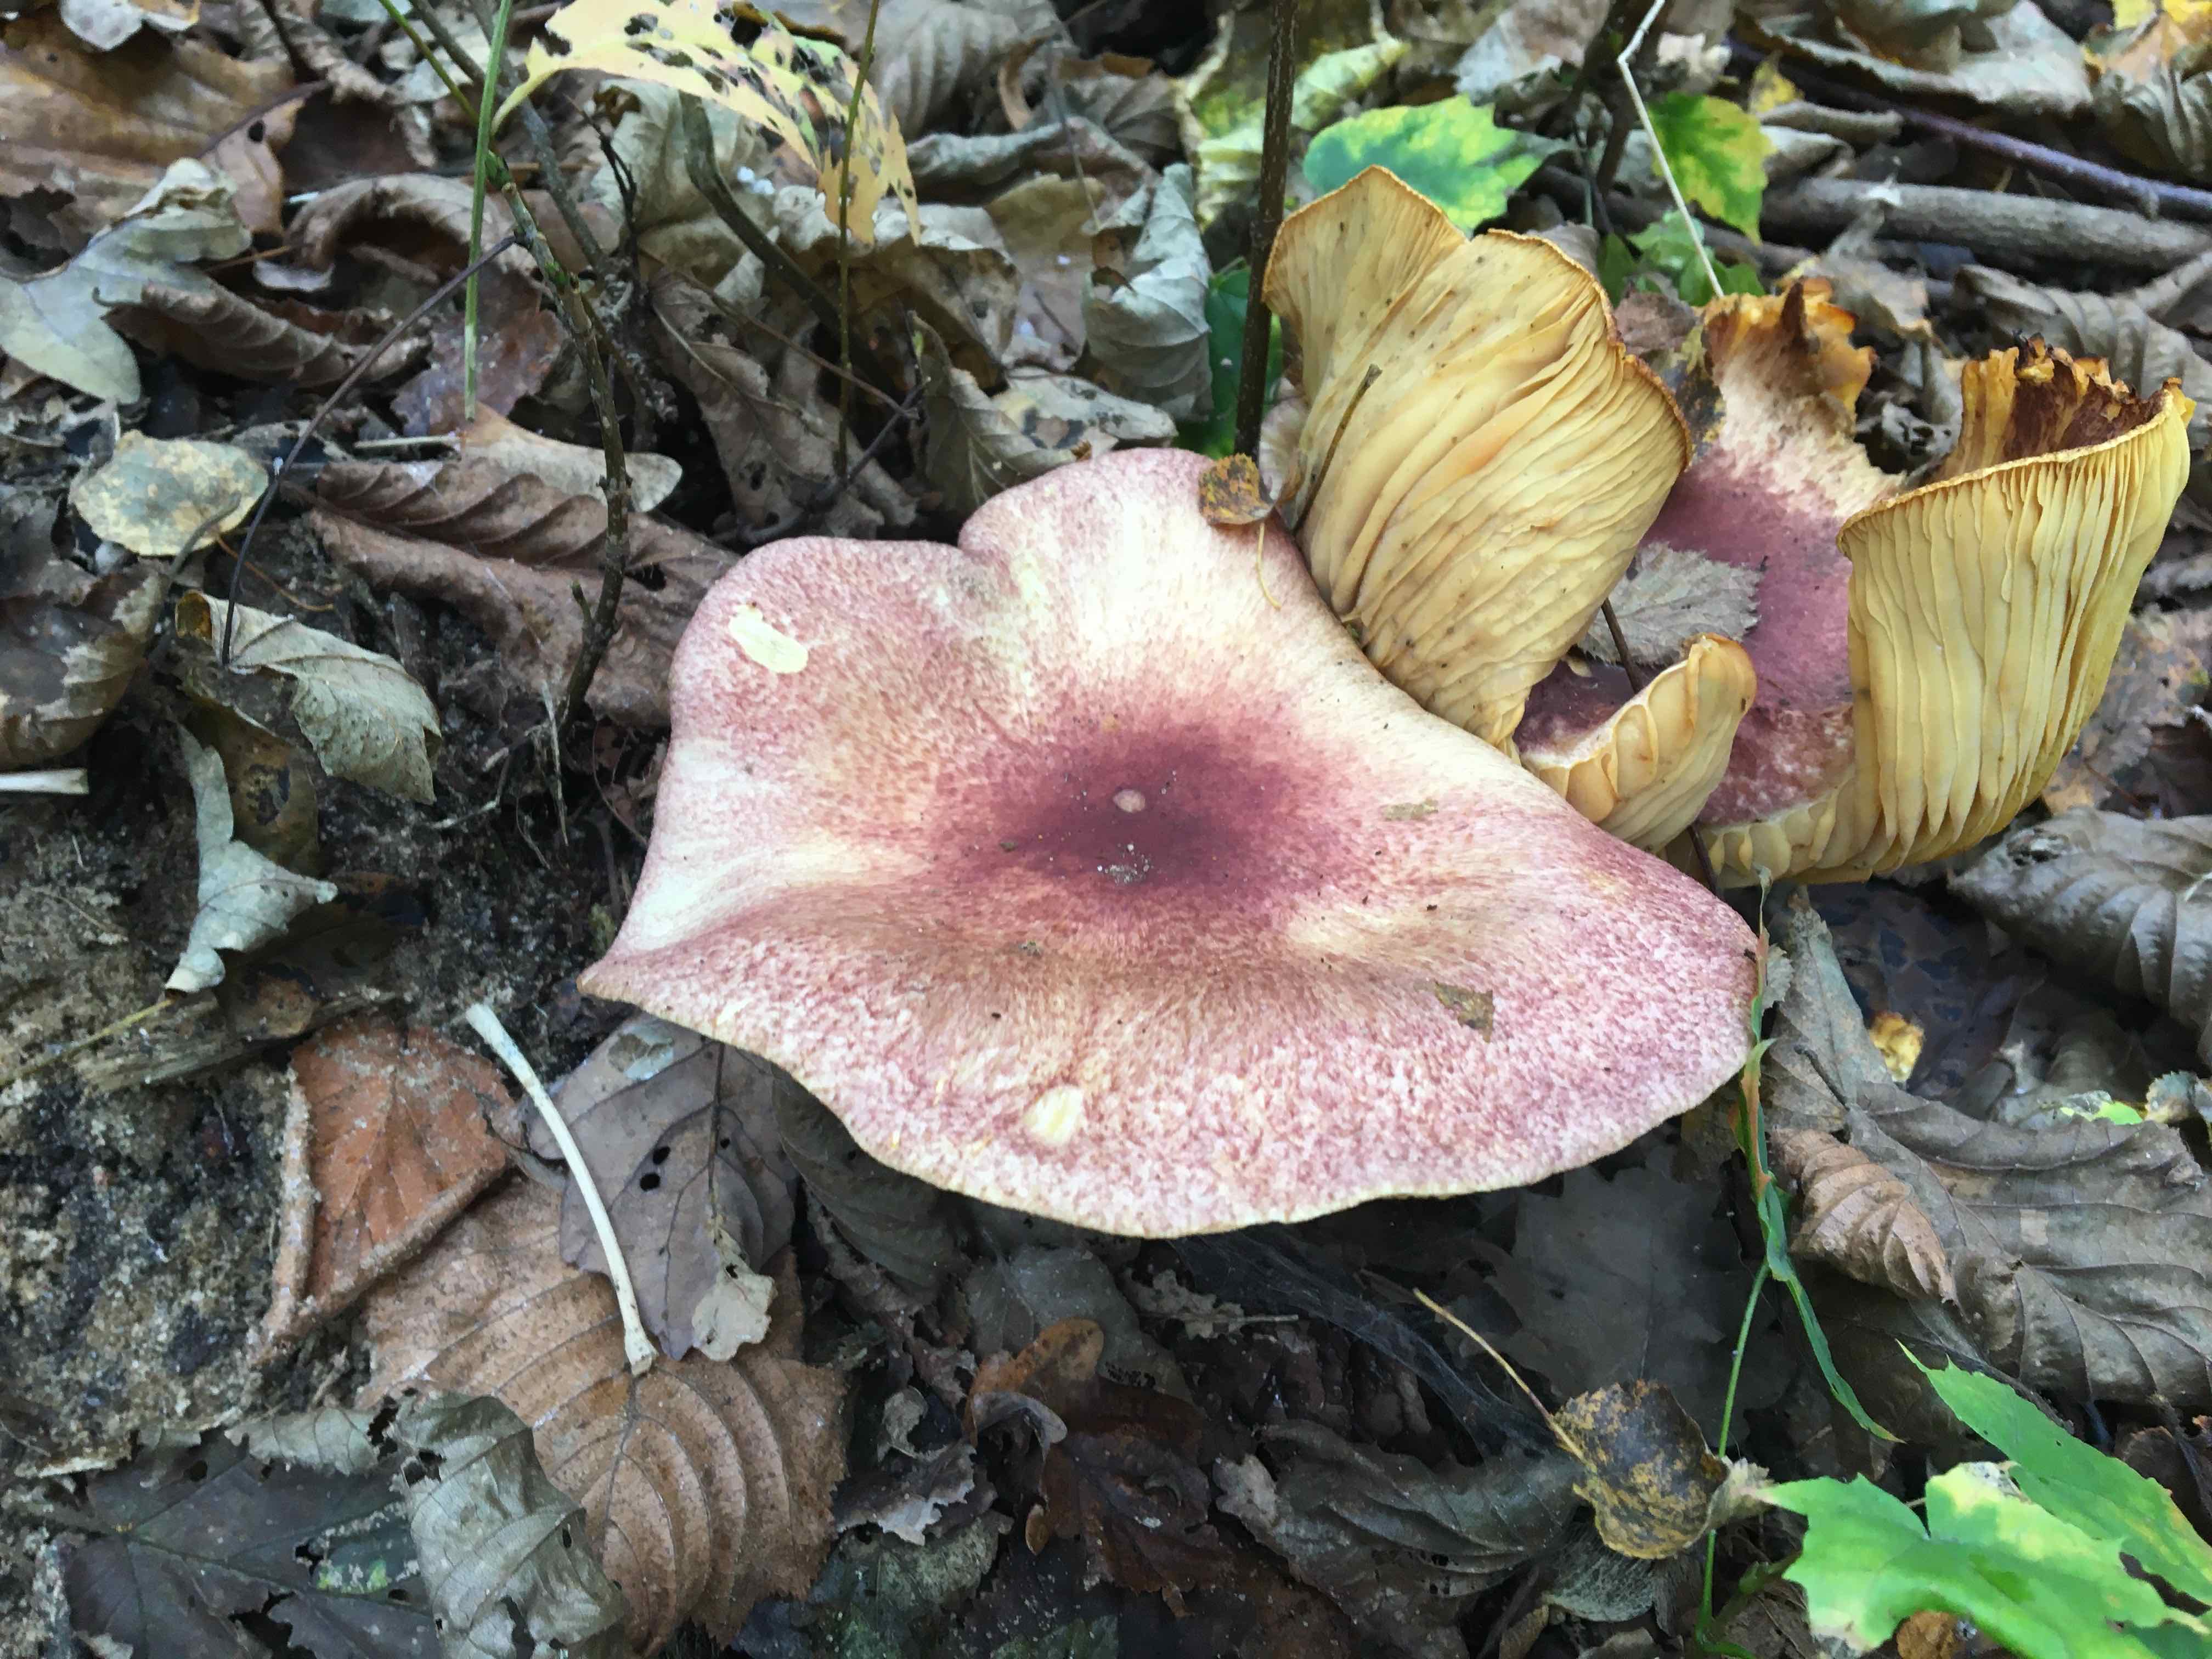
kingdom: Fungi
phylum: Basidiomycota
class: Agaricomycetes
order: Agaricales
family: Tricholomataceae
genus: Tricholomopsis
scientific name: Tricholomopsis rutilans
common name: purpur-væbnerhat
